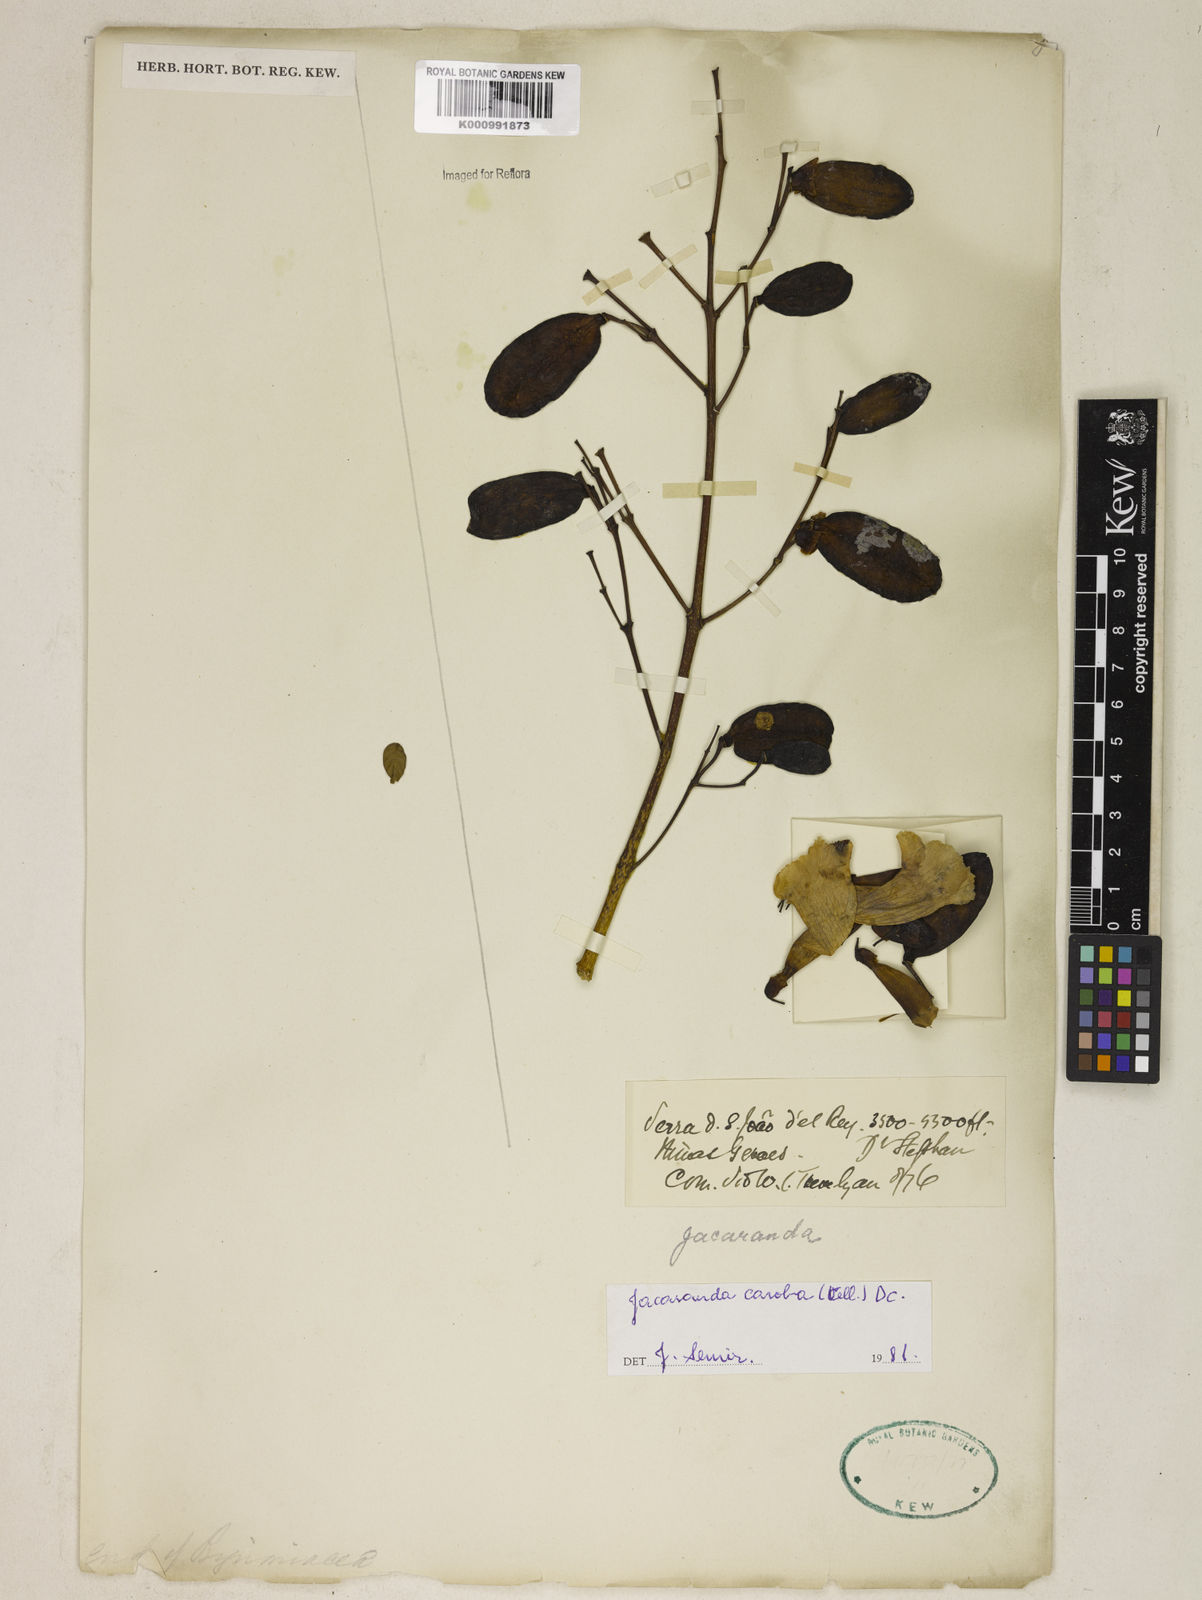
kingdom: Plantae
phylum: Tracheophyta
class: Magnoliopsida
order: Lamiales
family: Bignoniaceae
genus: Jacaranda
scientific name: Jacaranda
